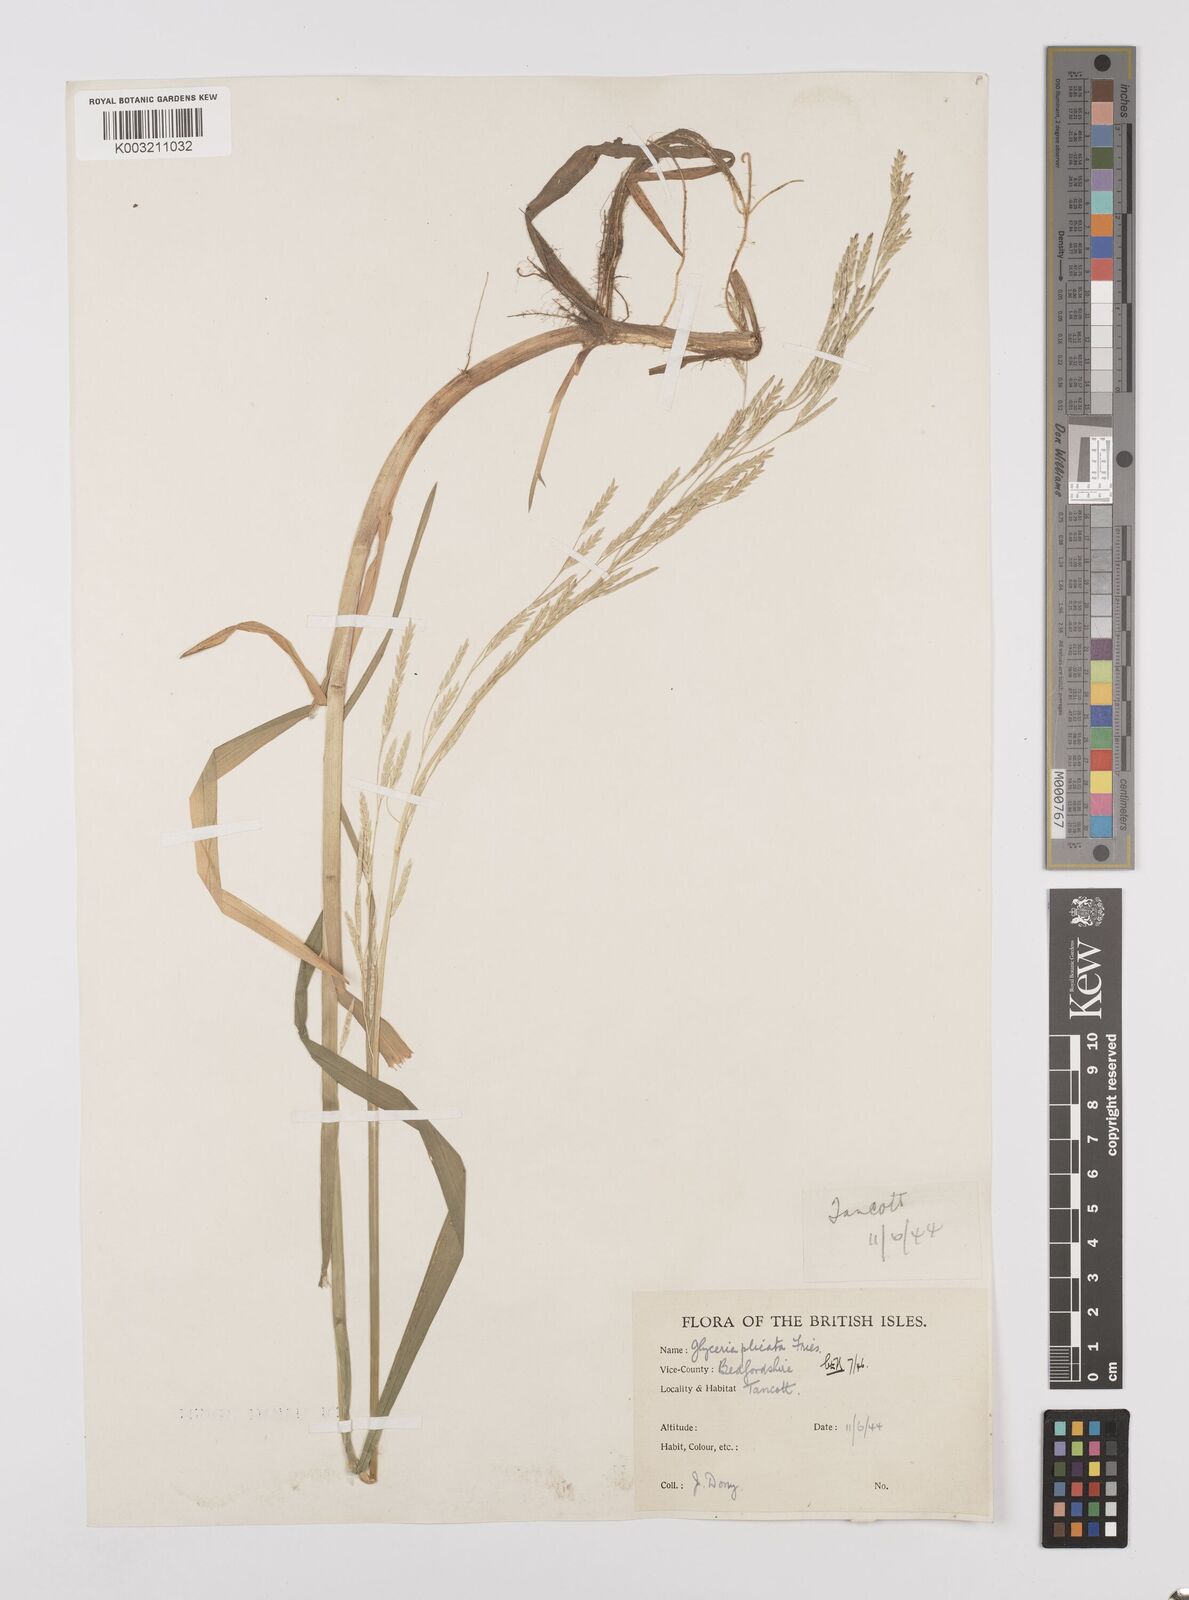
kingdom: Plantae
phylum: Tracheophyta
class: Liliopsida
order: Poales
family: Poaceae
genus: Glyceria
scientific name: Glyceria notata
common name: Plicate sweet-grass
